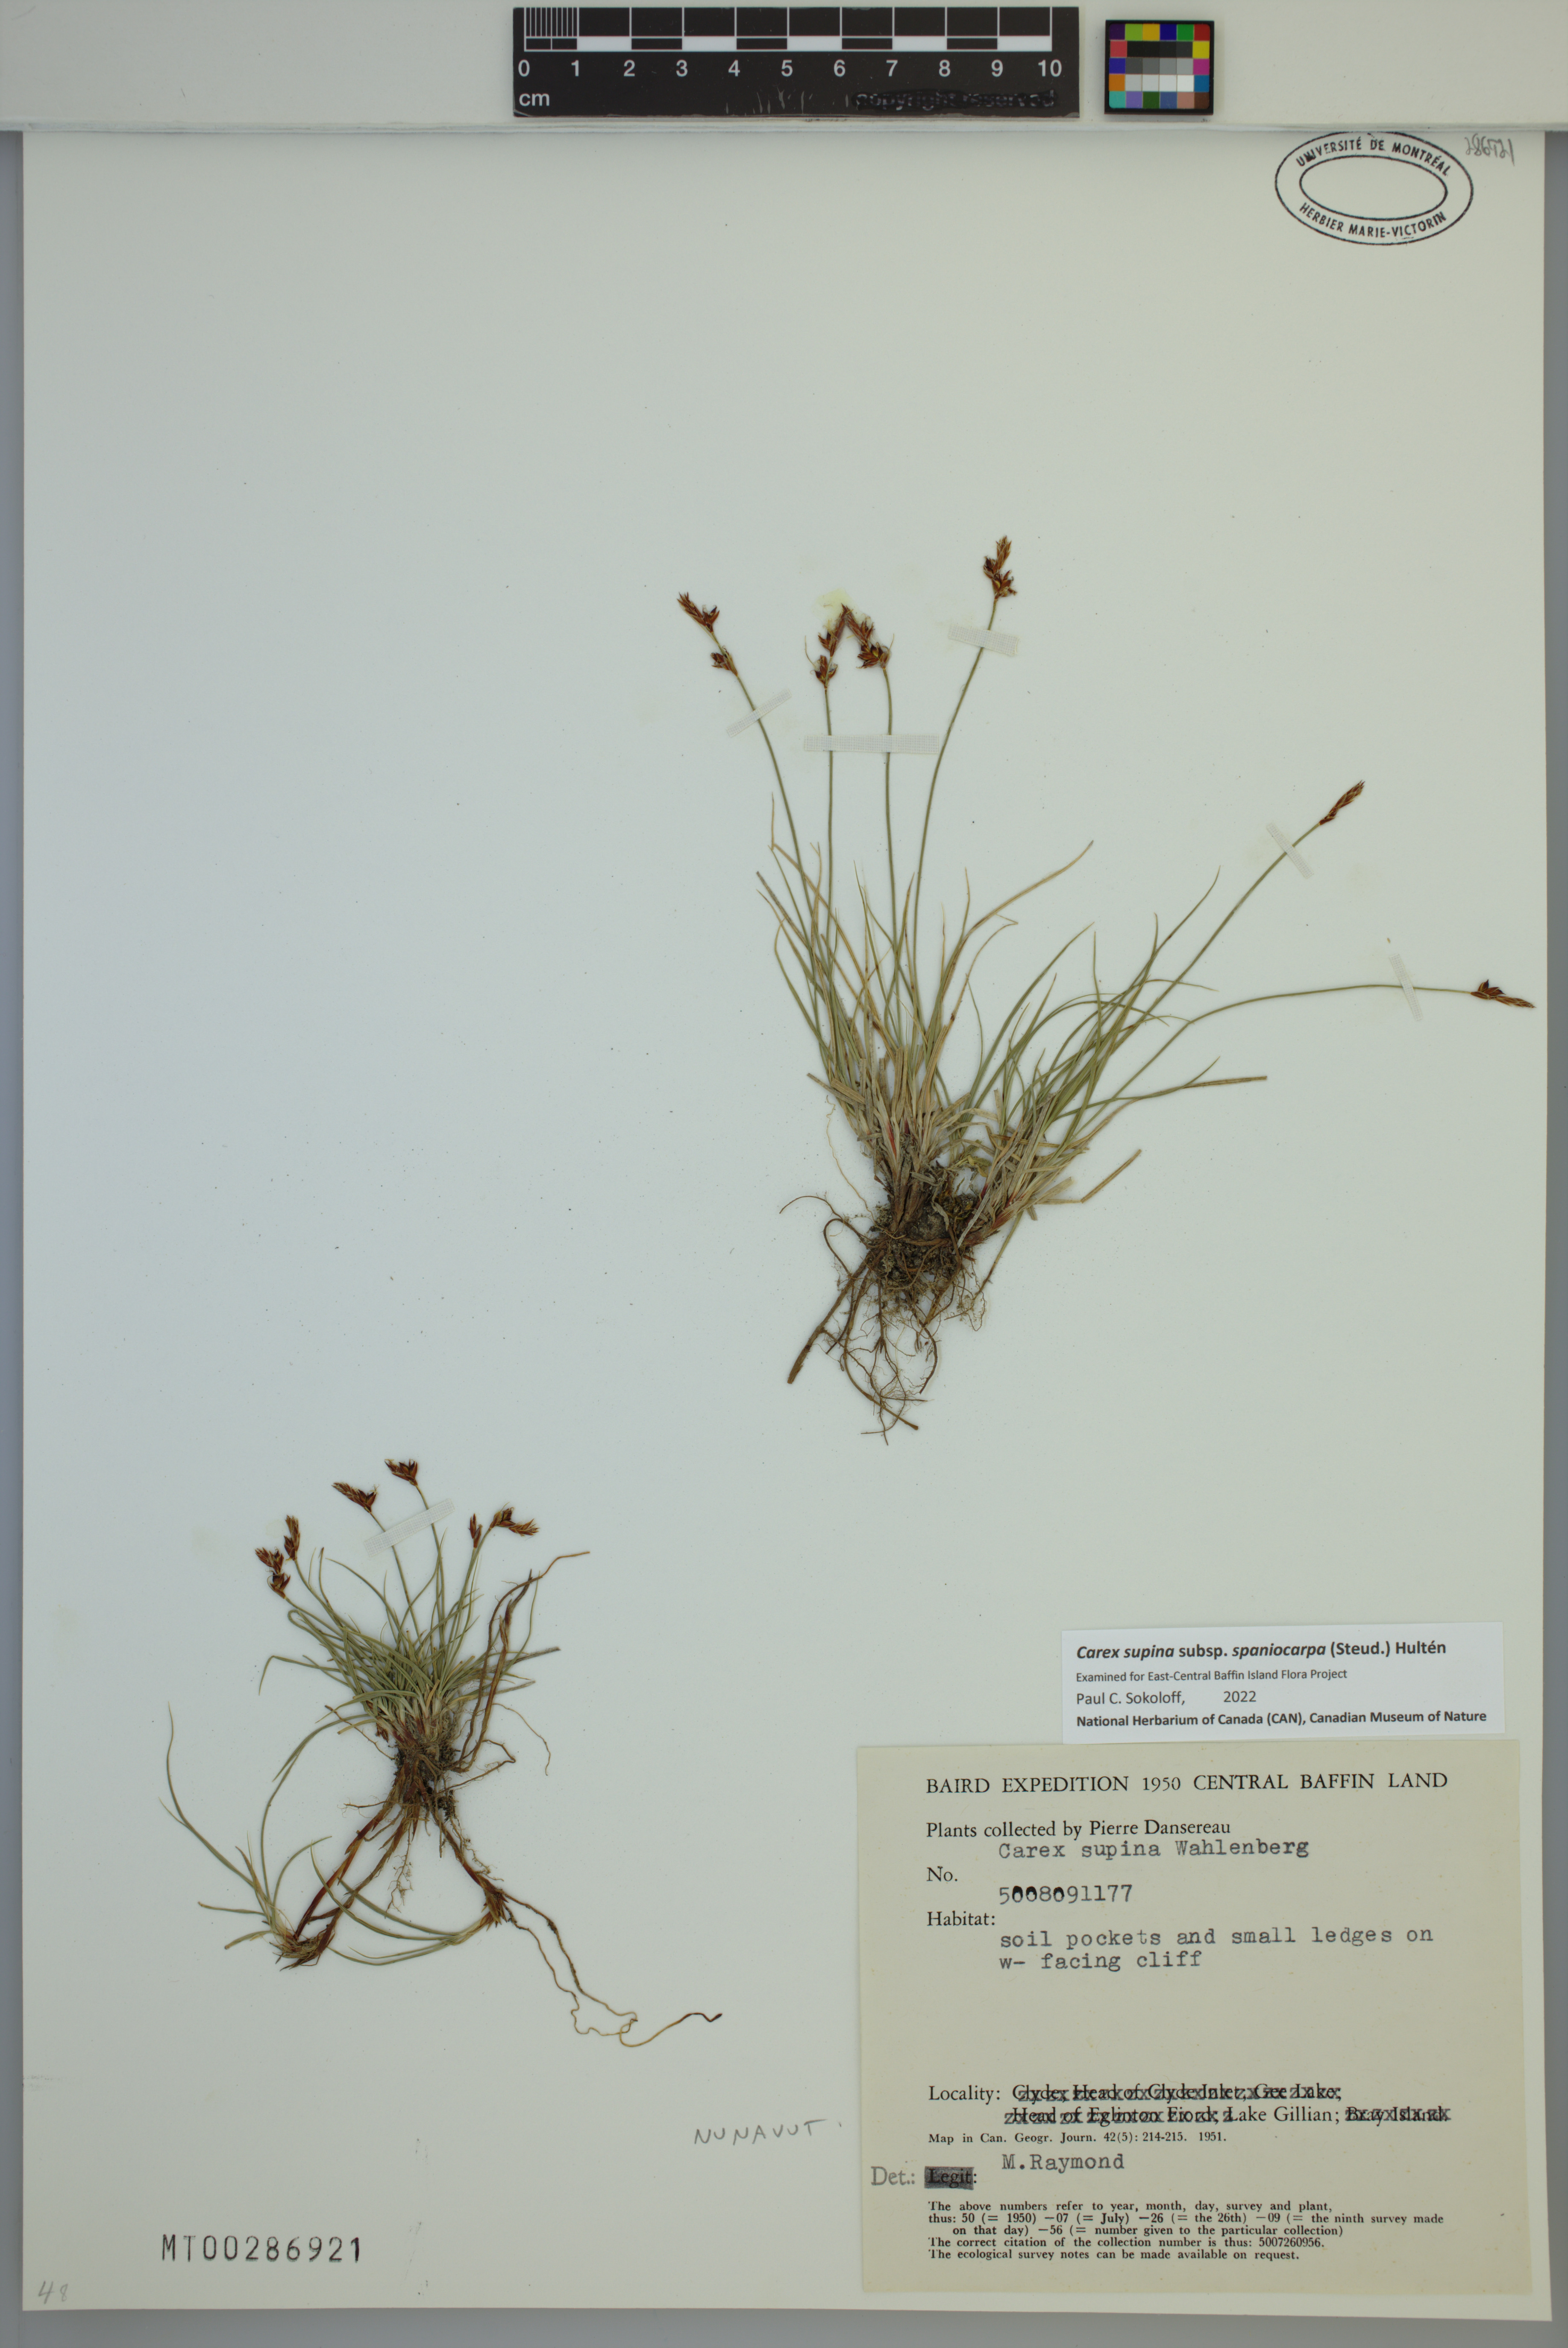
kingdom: Plantae
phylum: Tracheophyta
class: Liliopsida
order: Poales
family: Cyperaceae
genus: Carex
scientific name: Carex supina
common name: Lying-back sedge
